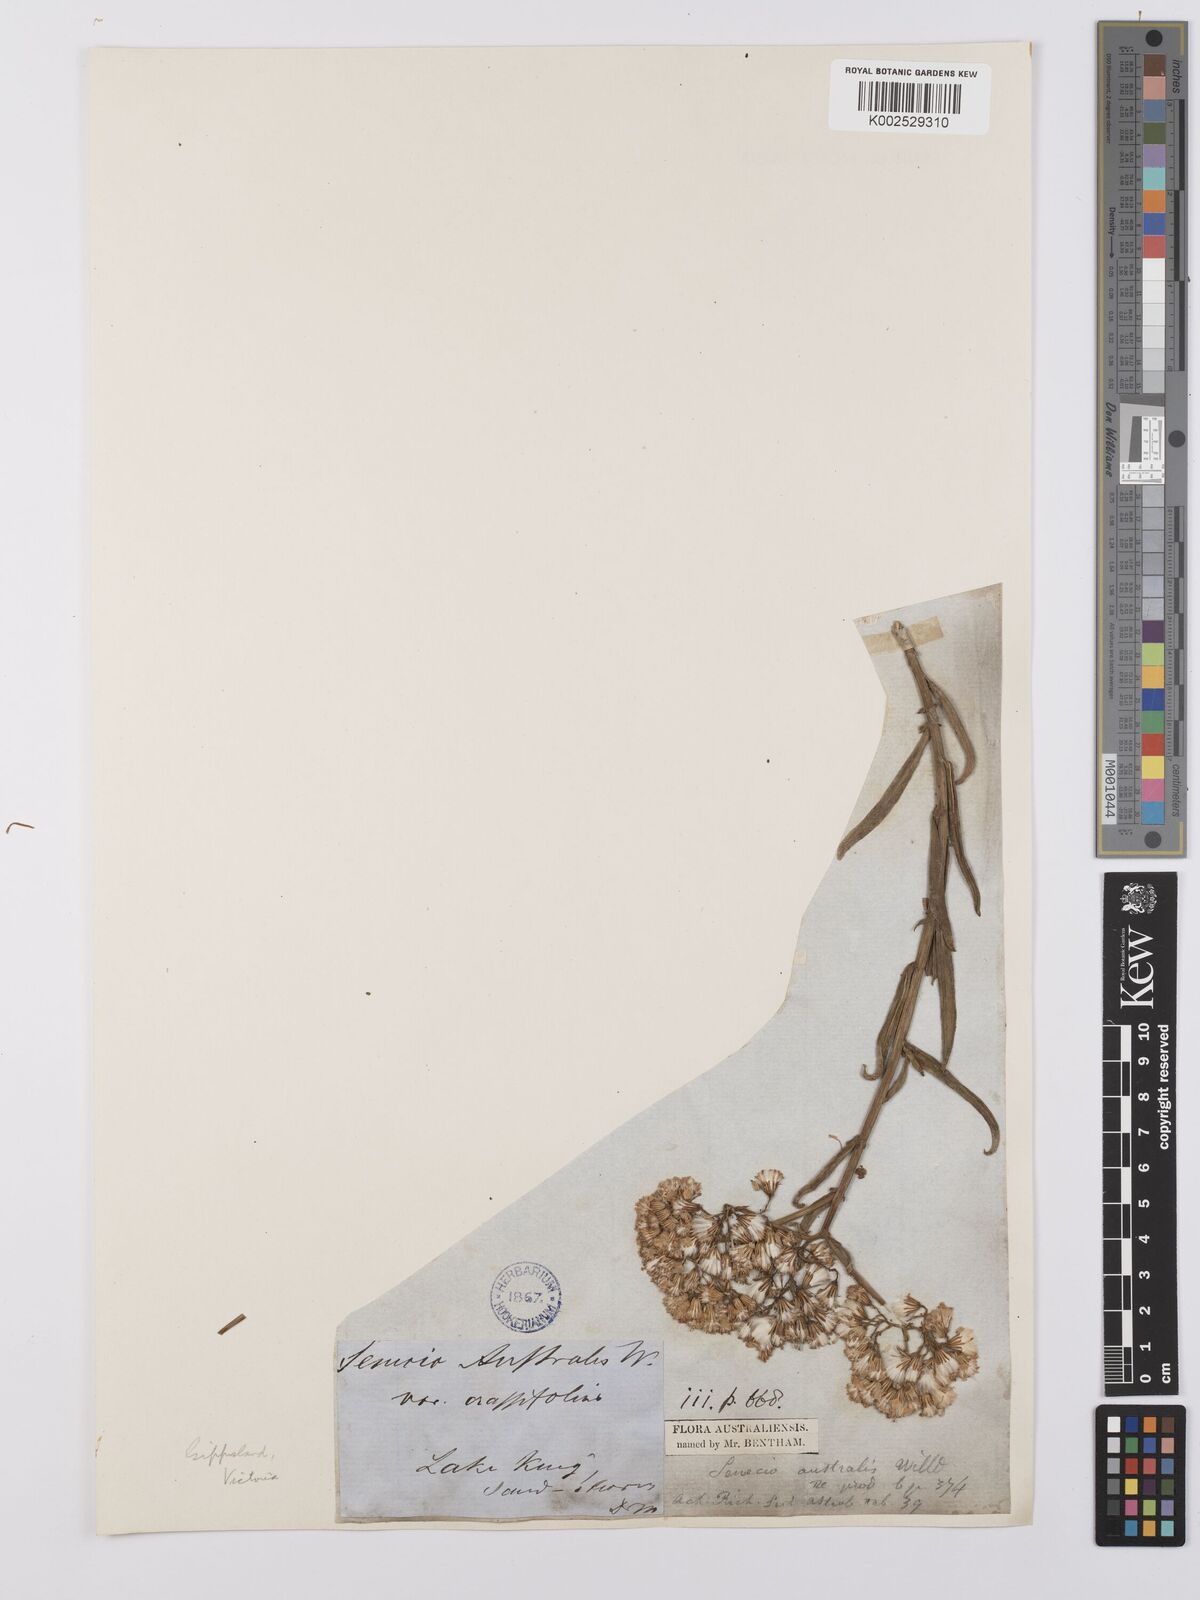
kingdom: Plantae
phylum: Tracheophyta
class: Magnoliopsida
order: Asterales
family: Asteraceae
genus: Senecio
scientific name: Senecio linearifolius
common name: Fireweed groundsel
